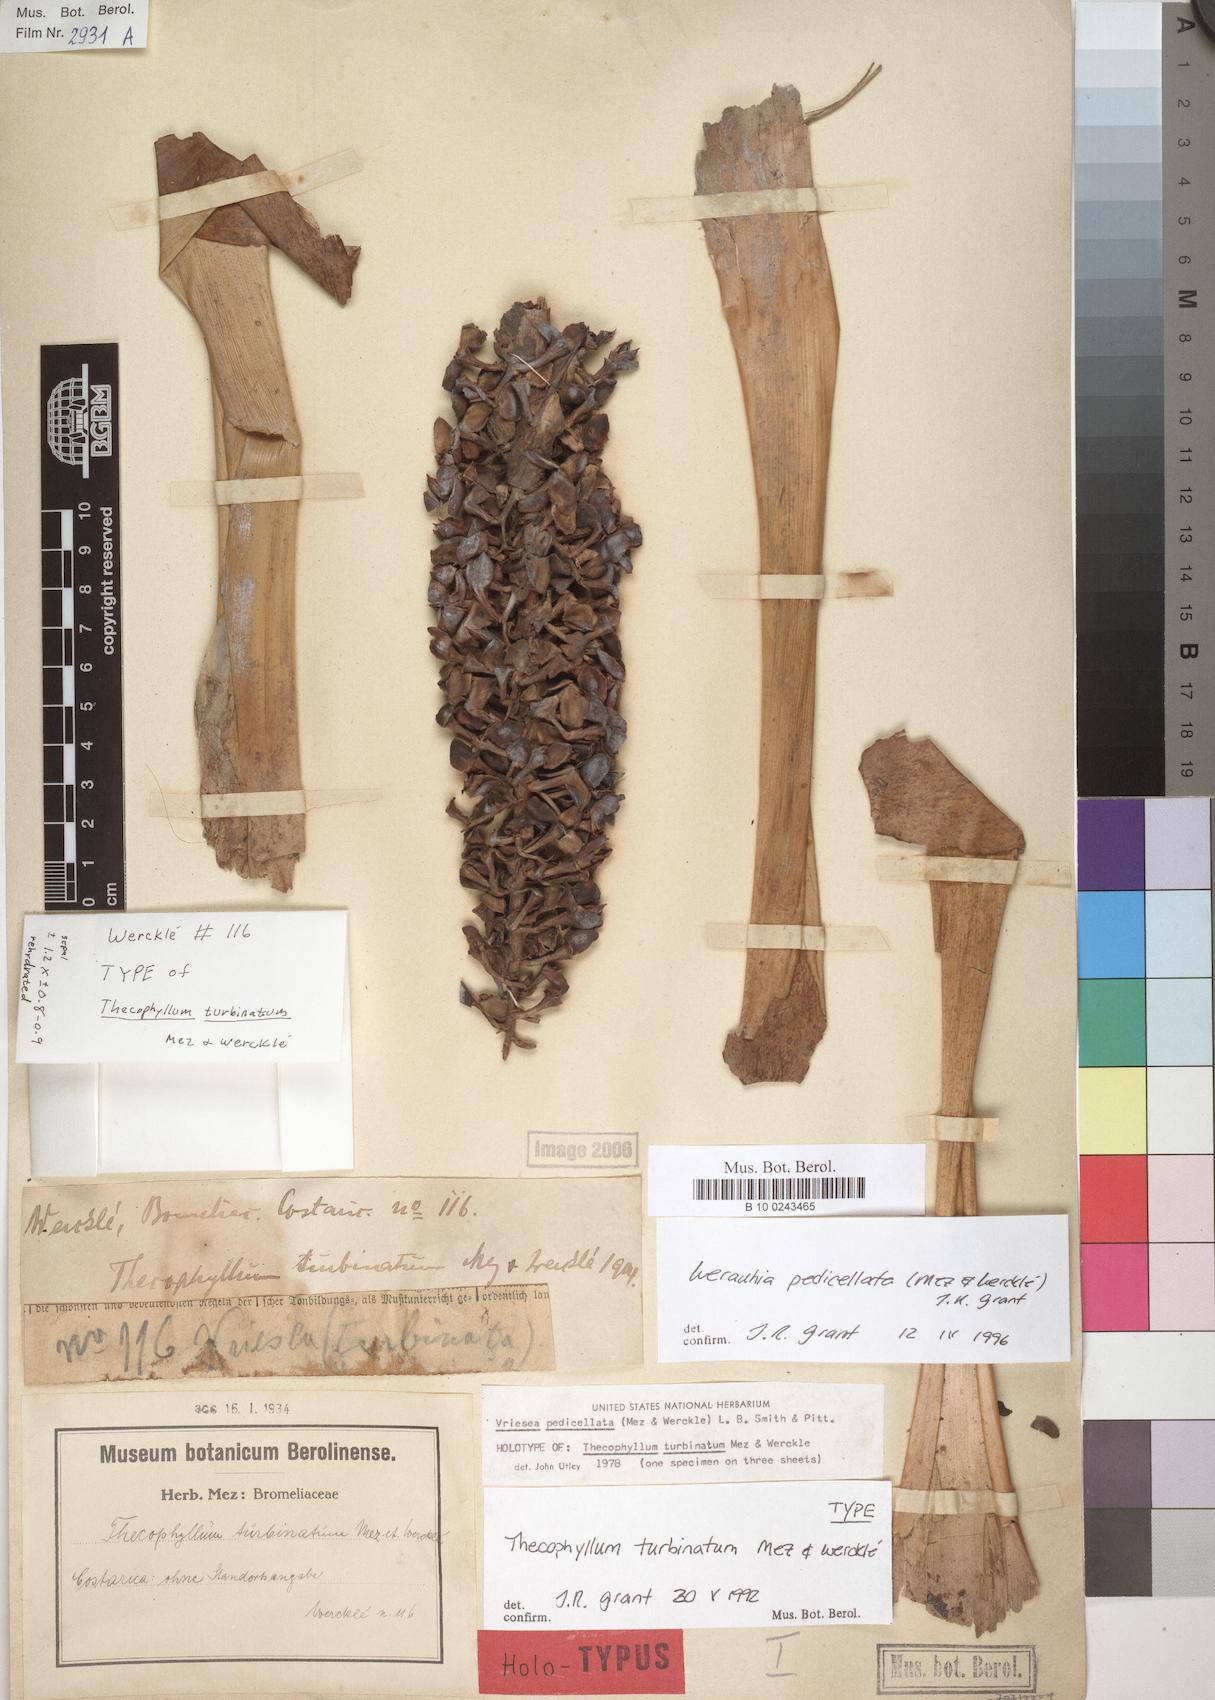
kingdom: Plantae
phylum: Tracheophyta
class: Liliopsida
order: Poales
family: Bromeliaceae
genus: Werauhia
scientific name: Werauhia pedicellata
